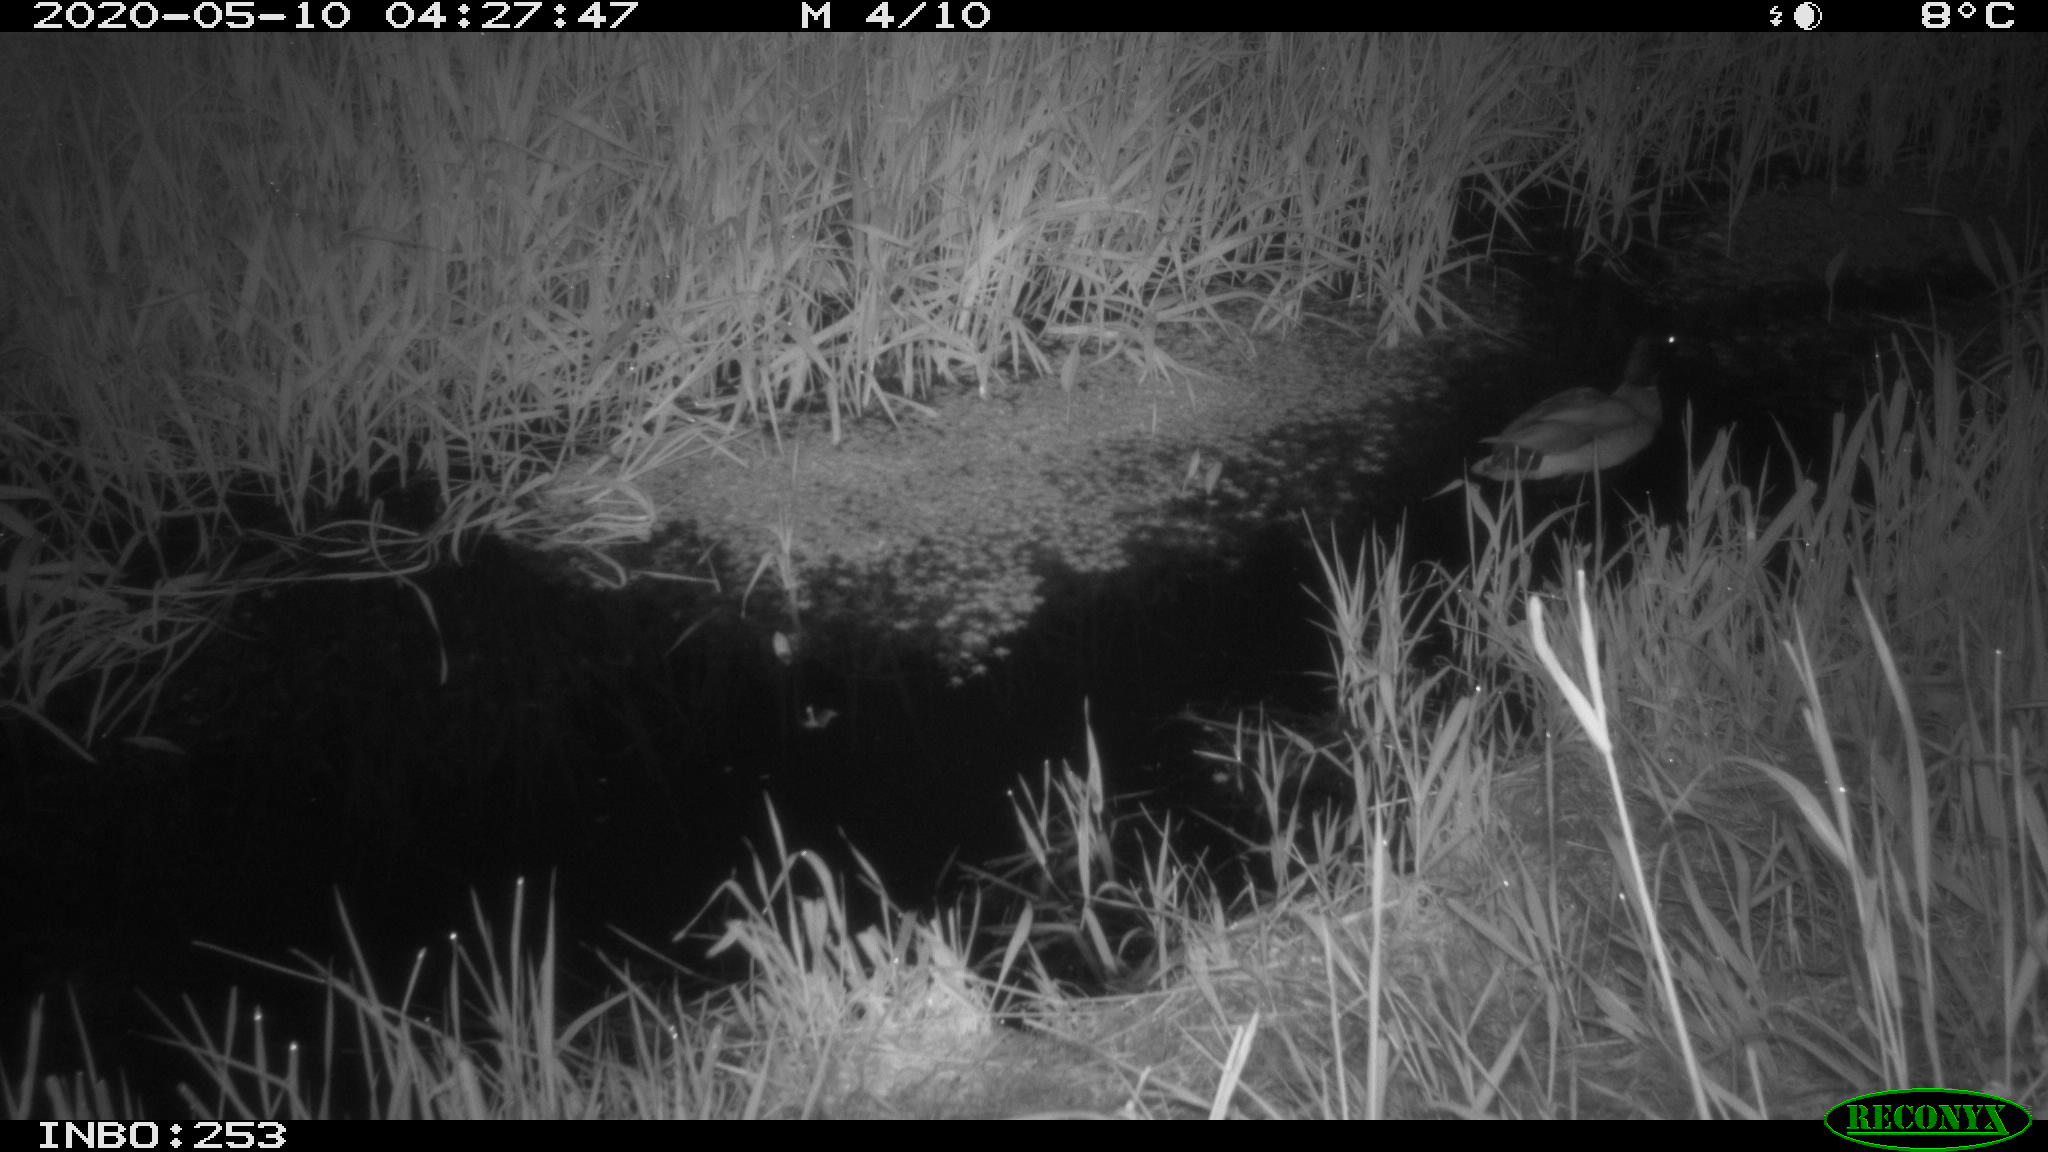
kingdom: Animalia
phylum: Chordata
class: Aves
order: Anseriformes
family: Anatidae
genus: Anas
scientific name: Anas platyrhynchos
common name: Mallard
